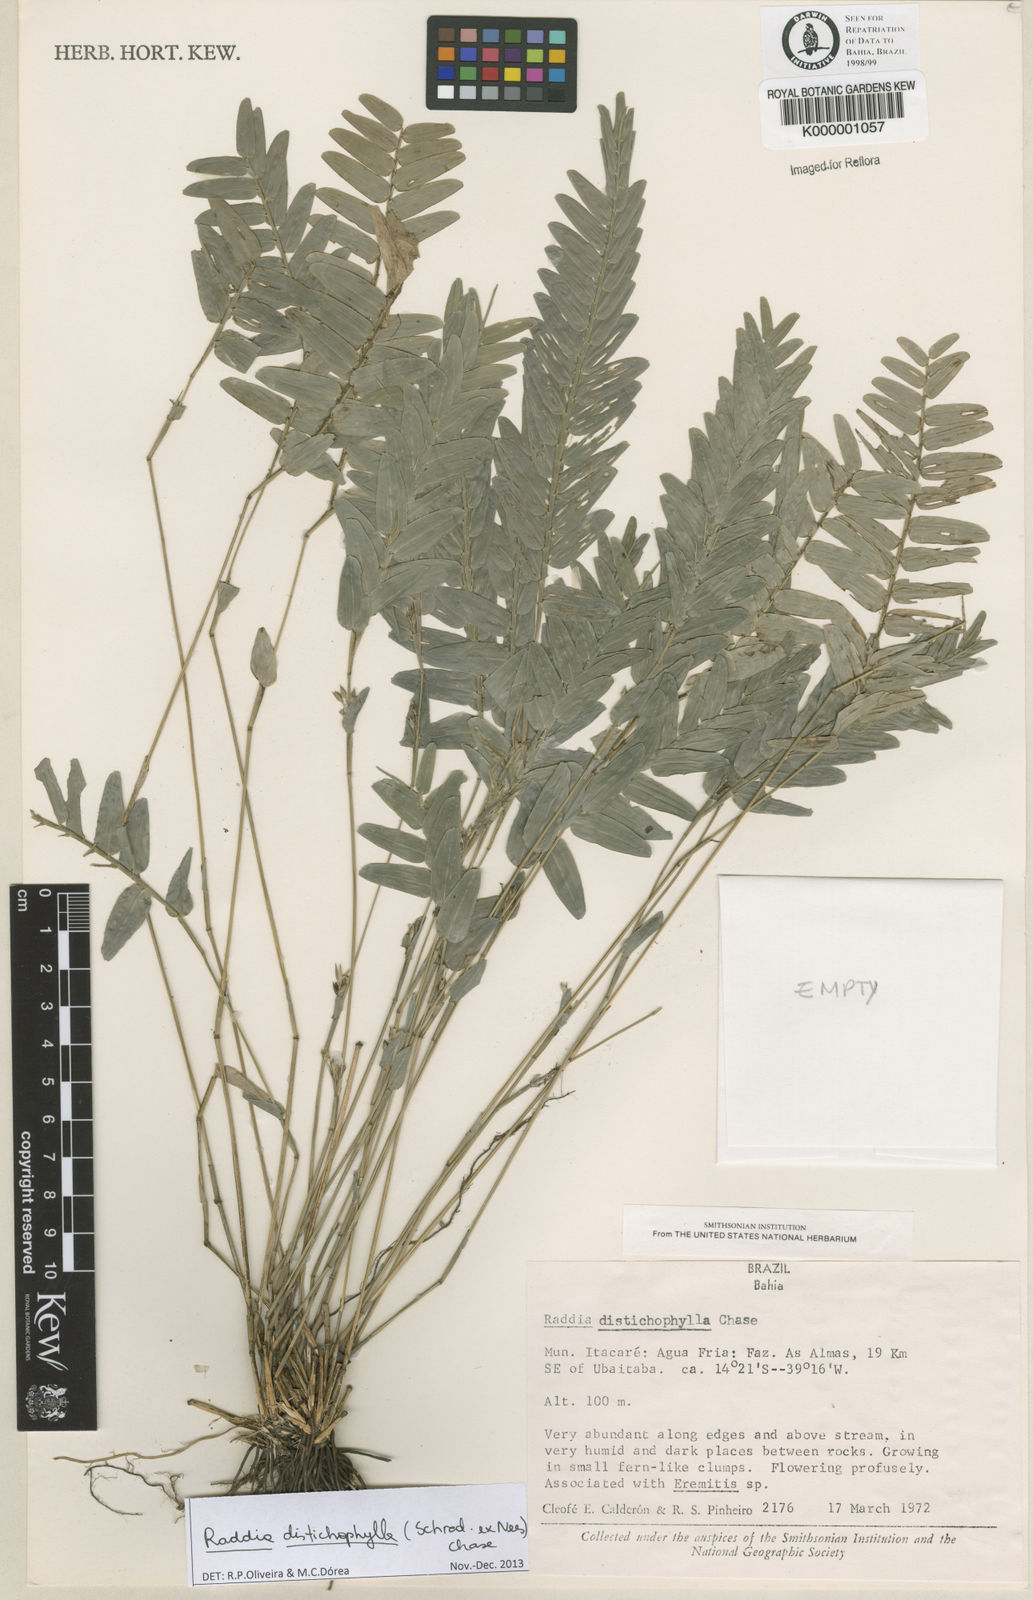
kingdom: Plantae
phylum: Tracheophyta
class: Liliopsida
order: Poales
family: Poaceae
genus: Raddia
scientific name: Raddia distichophylla
